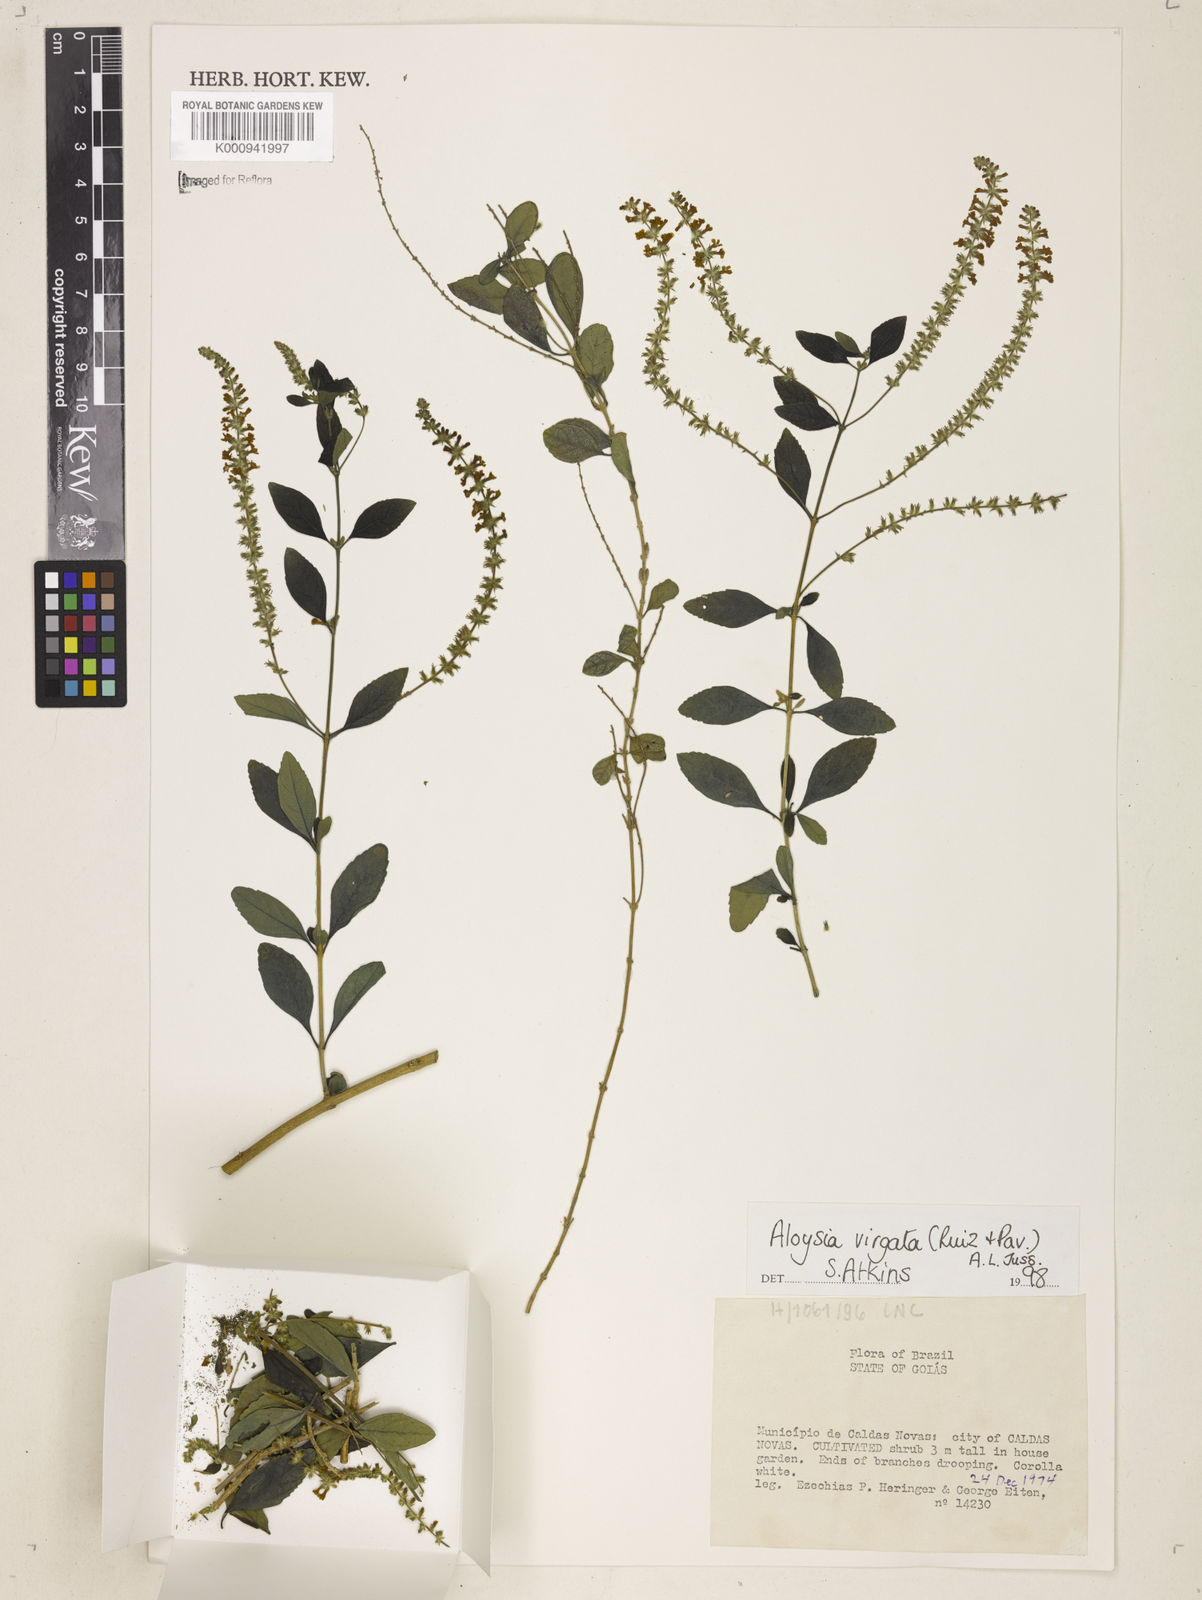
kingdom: Plantae
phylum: Tracheophyta
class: Magnoliopsida
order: Lamiales
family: Verbenaceae
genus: Aloysia
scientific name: Aloysia brasiliensis
